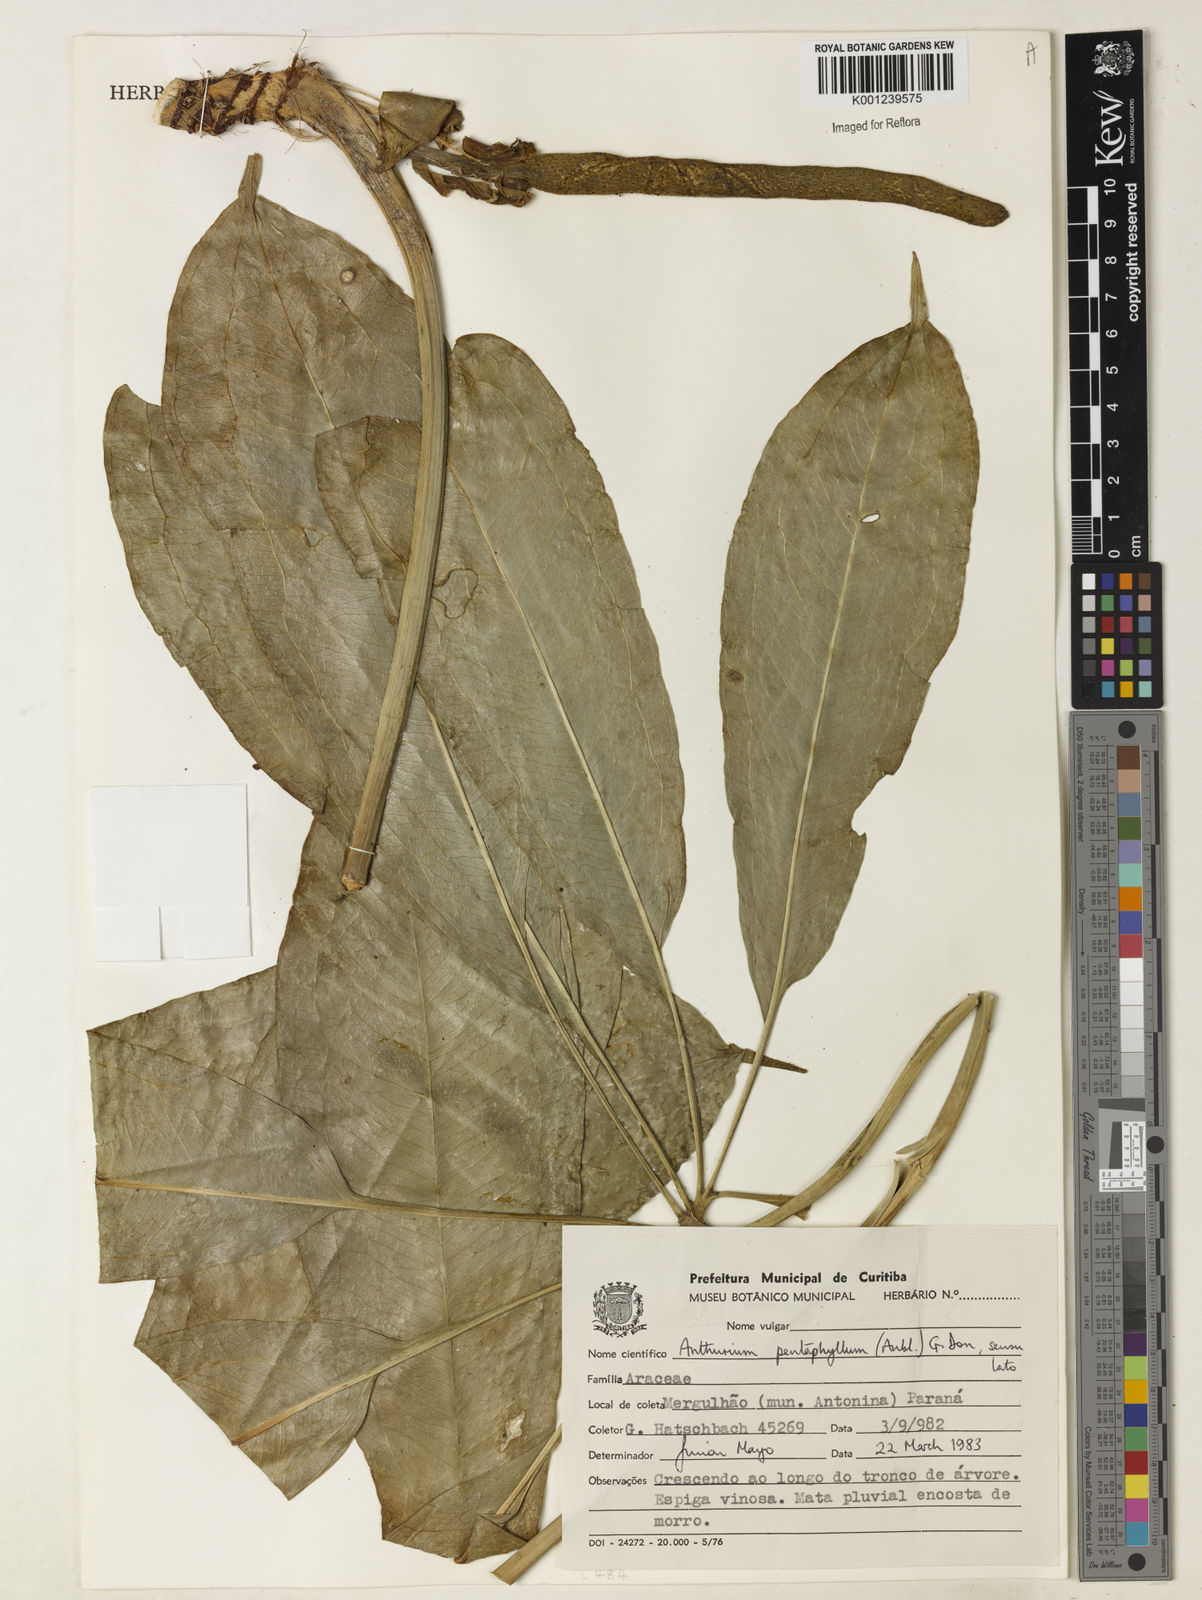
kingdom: Plantae
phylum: Tracheophyta
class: Liliopsida
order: Alismatales
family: Araceae
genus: Anthurium
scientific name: Anthurium pentaphyllum
